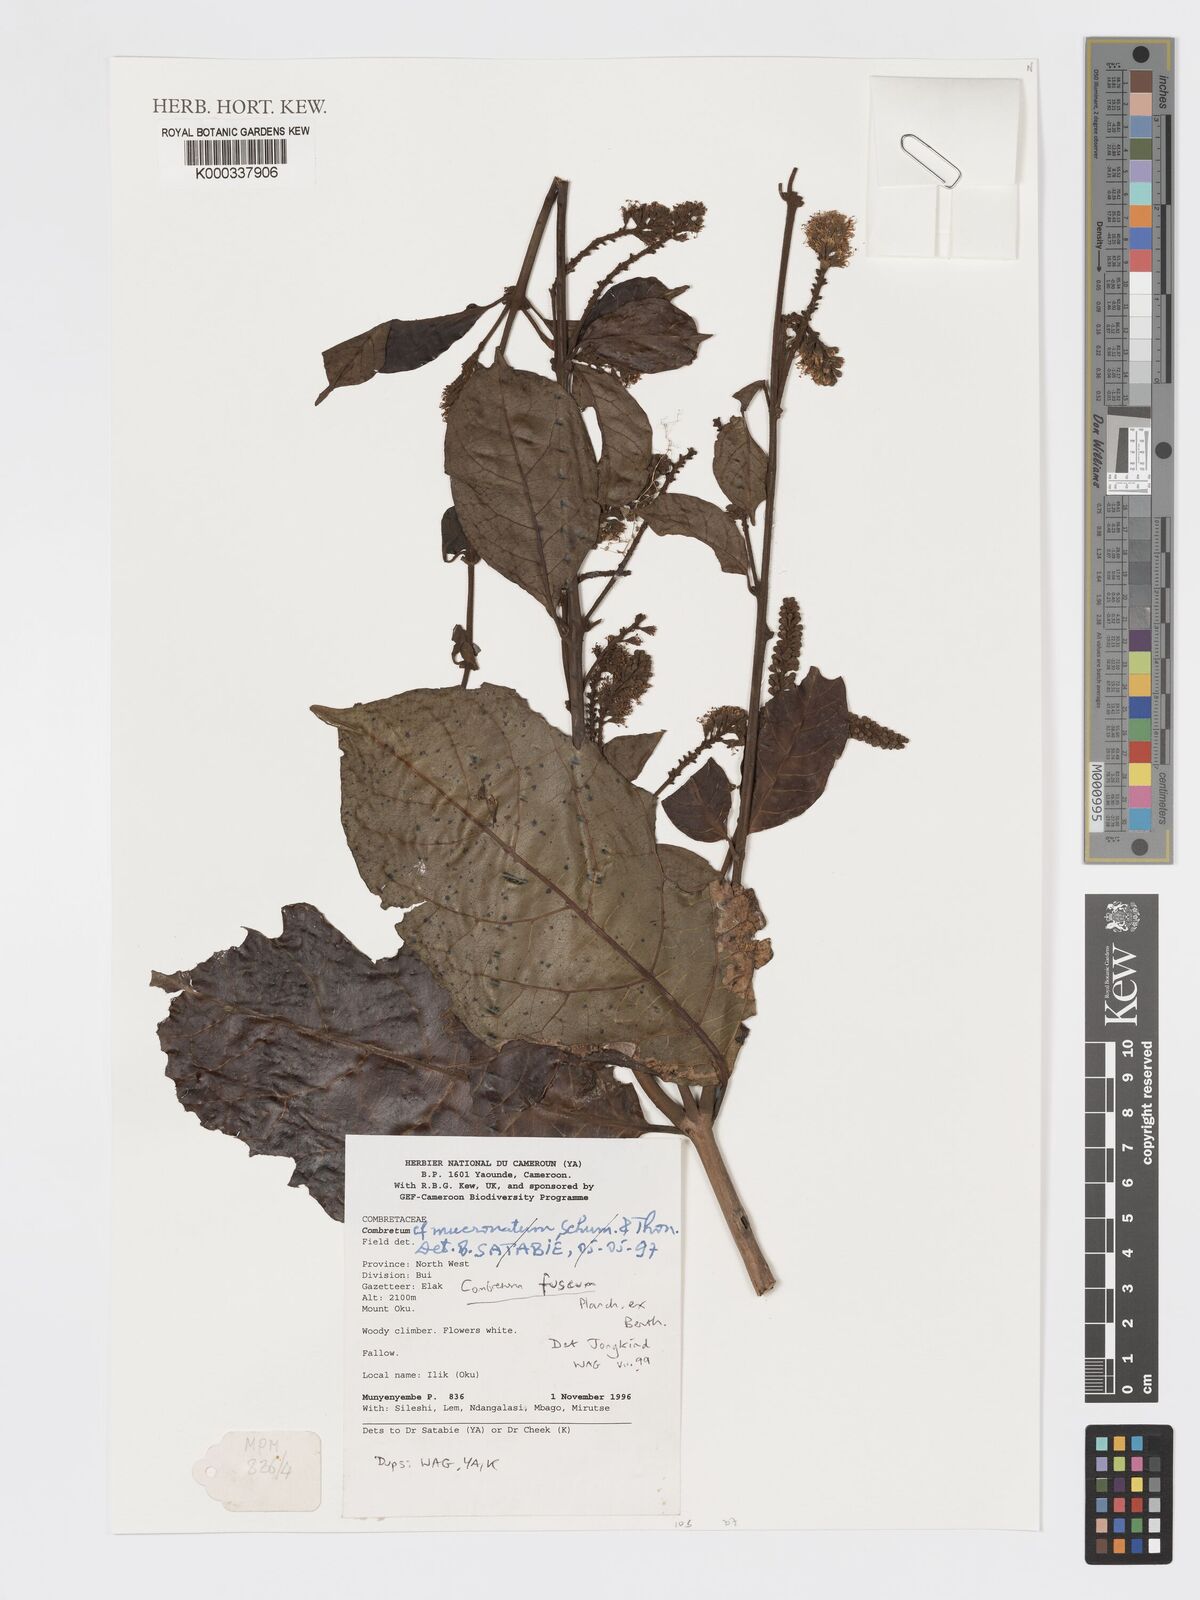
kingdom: Plantae
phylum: Tracheophyta
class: Magnoliopsida
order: Myrtales
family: Combretaceae
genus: Combretum
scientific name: Combretum mucronatum
